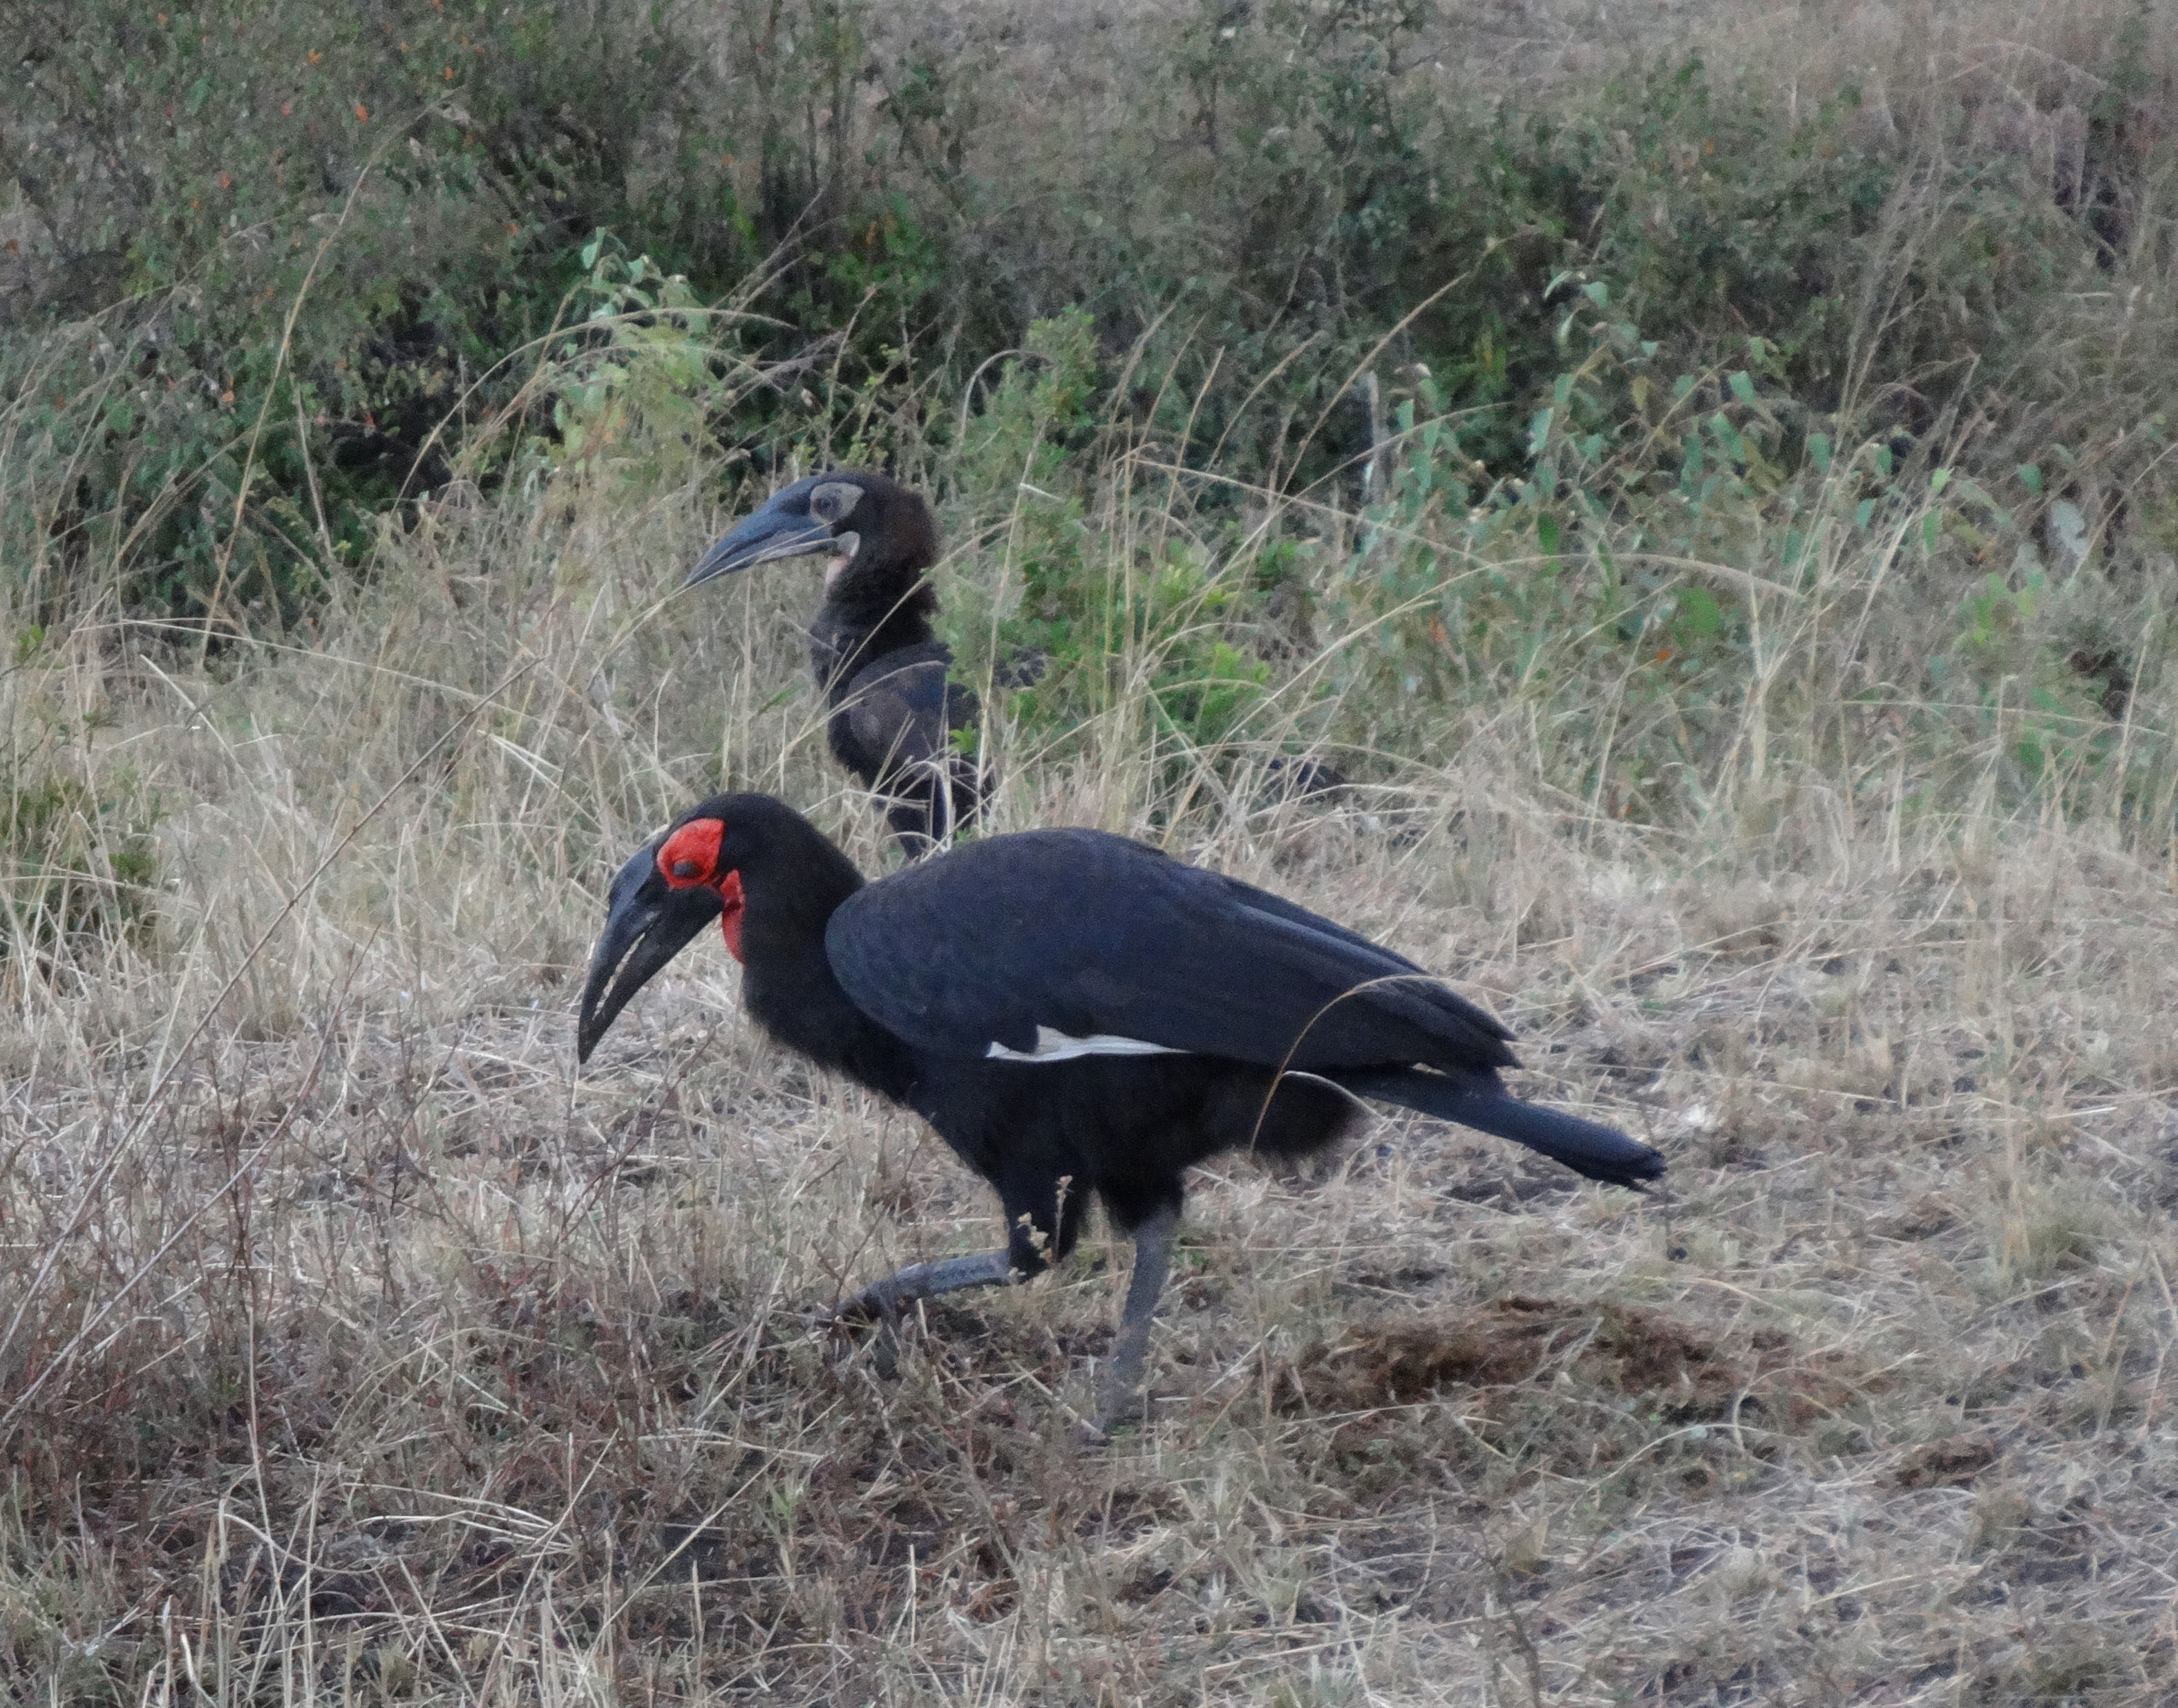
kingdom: Animalia
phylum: Chordata
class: Aves
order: Bucerotiformes
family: Bucorvidae
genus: Bucorvus
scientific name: Bucorvus leadbeateri
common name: Southern ground-hornbill
